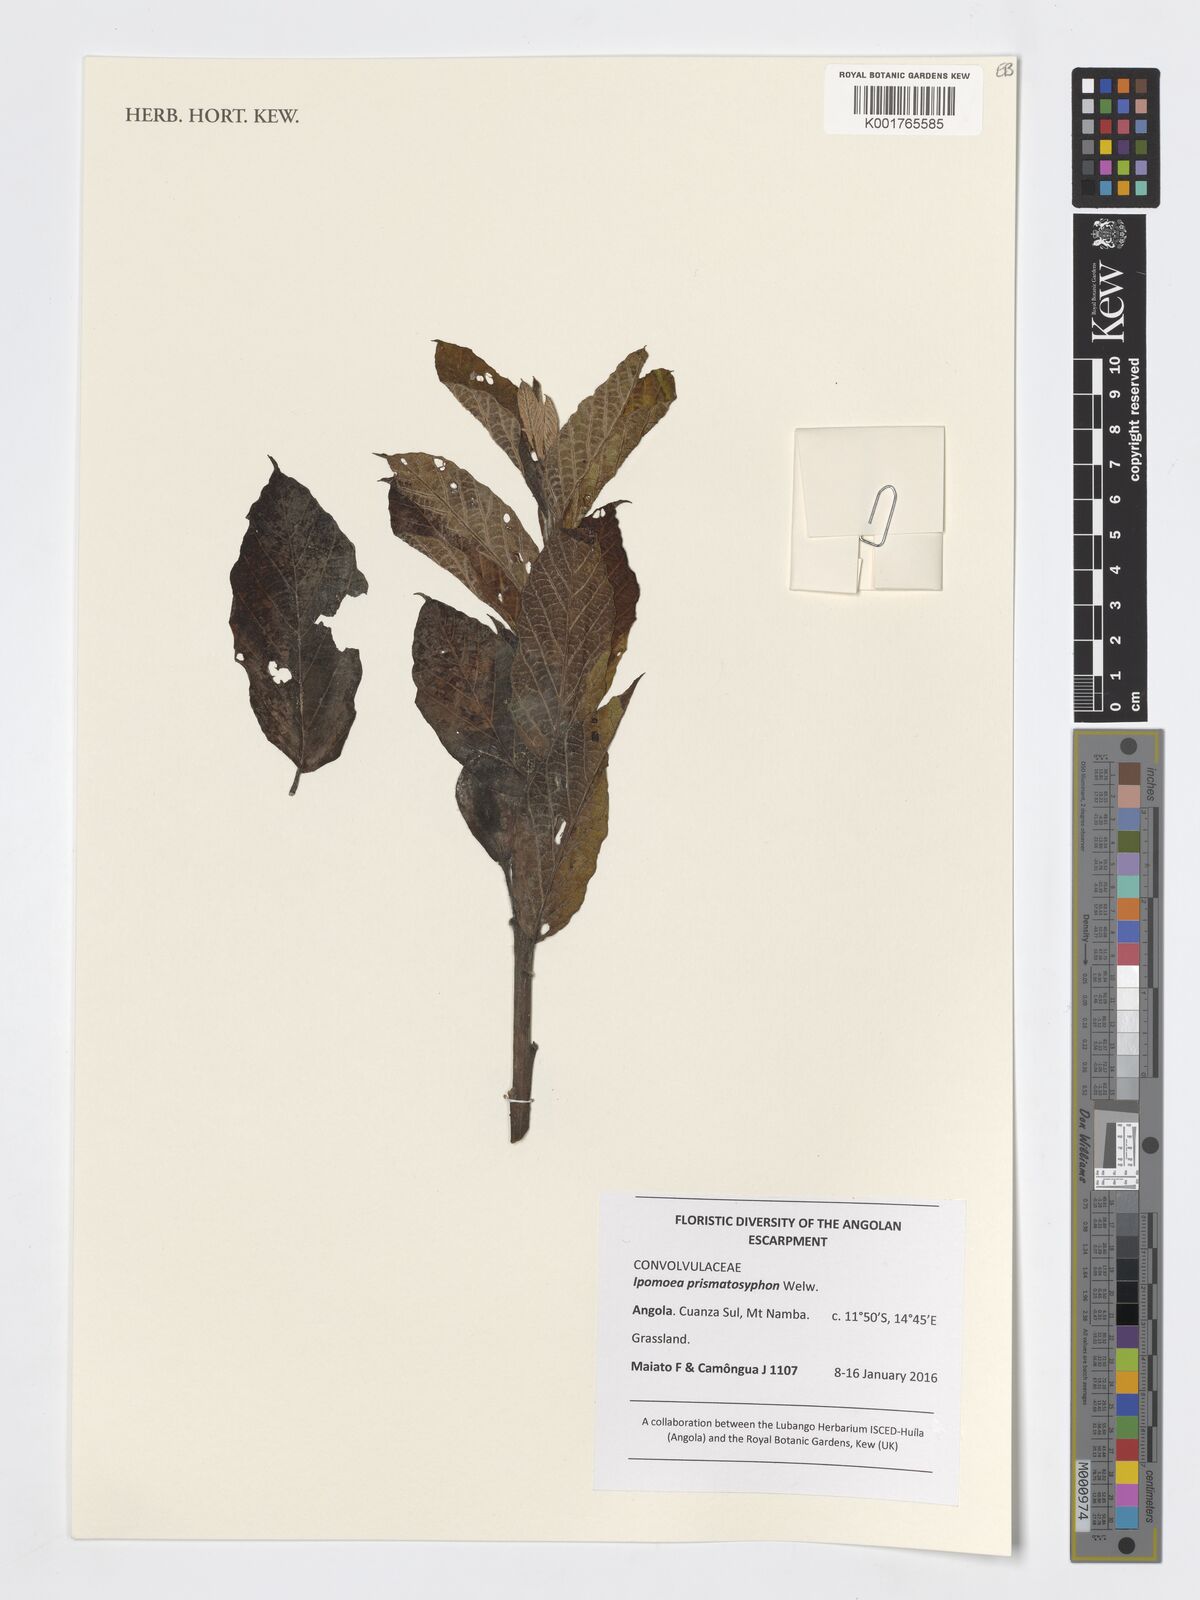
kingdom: Plantae
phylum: Tracheophyta
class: Magnoliopsida
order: Solanales
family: Convolvulaceae
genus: Ipomoea
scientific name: Ipomoea prismatosyphon
